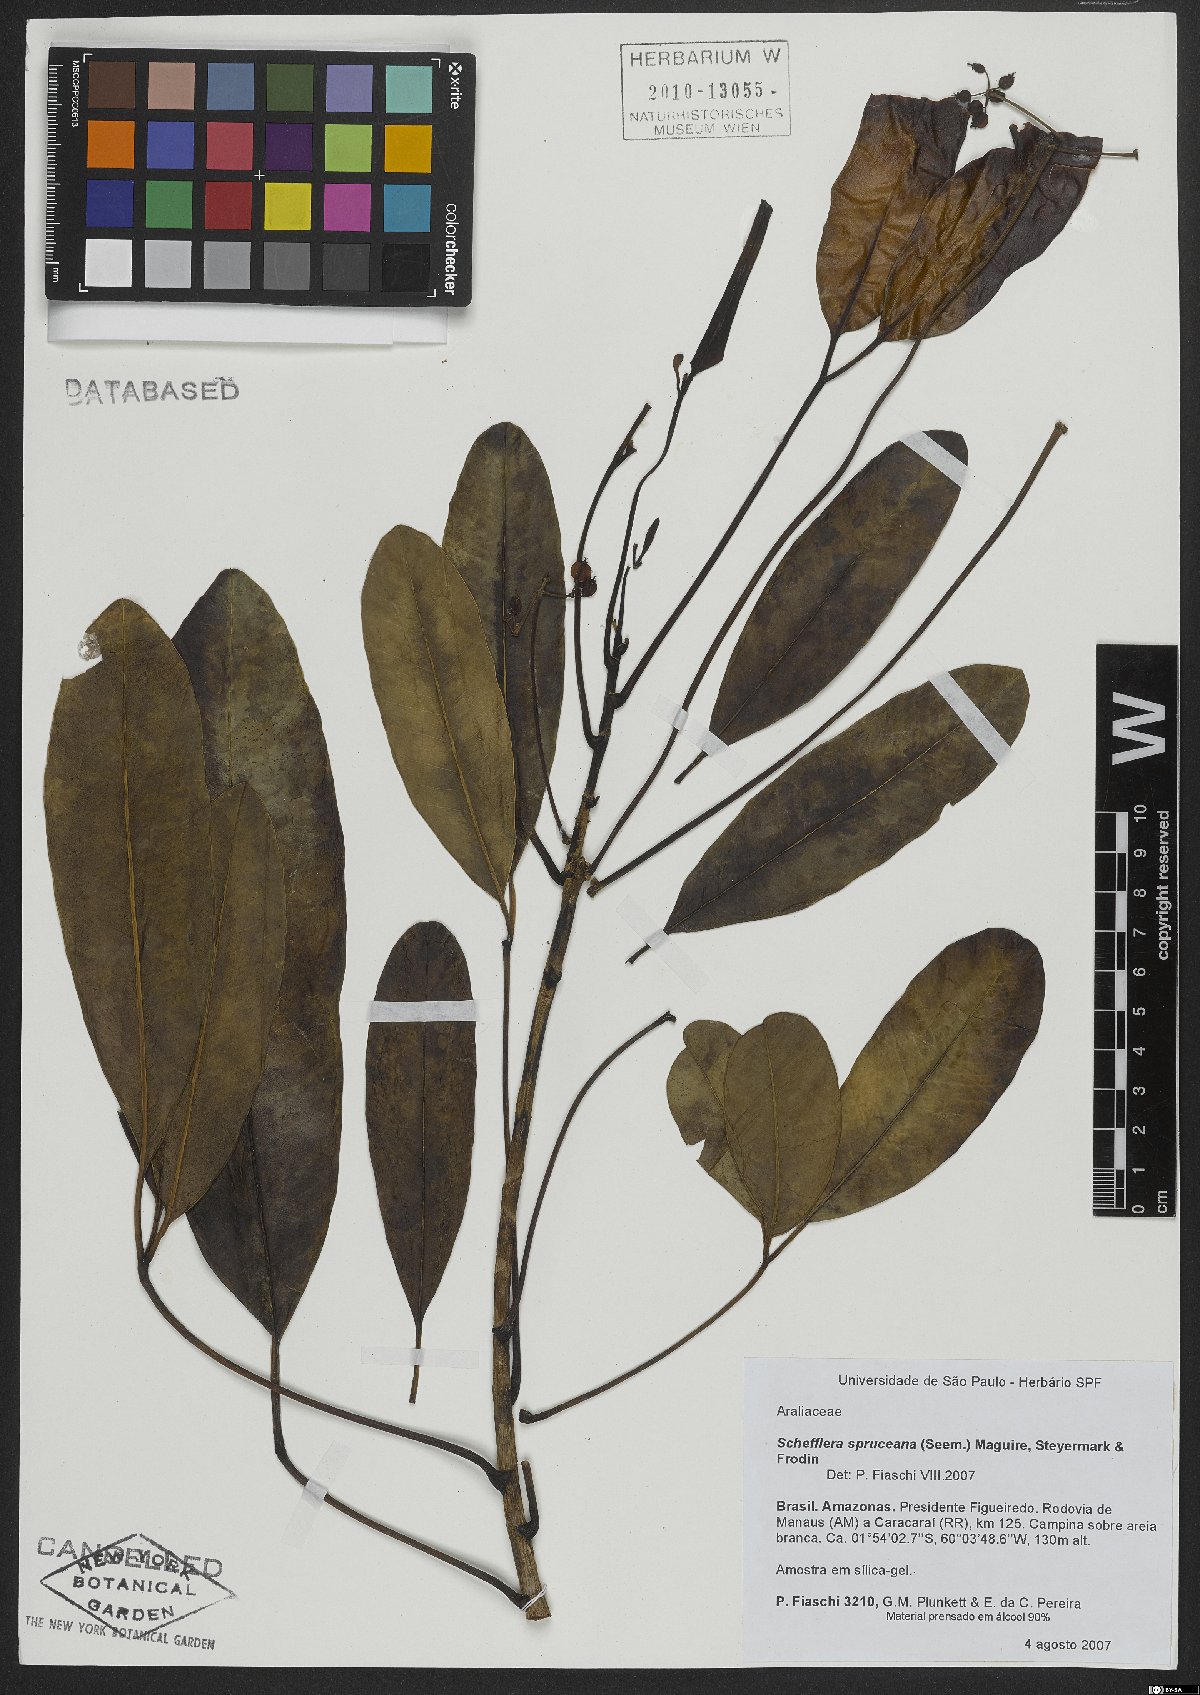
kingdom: Plantae
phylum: Tracheophyta
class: Magnoliopsida
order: Apiales
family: Araliaceae
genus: Crepinella
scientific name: Crepinella spruceana
